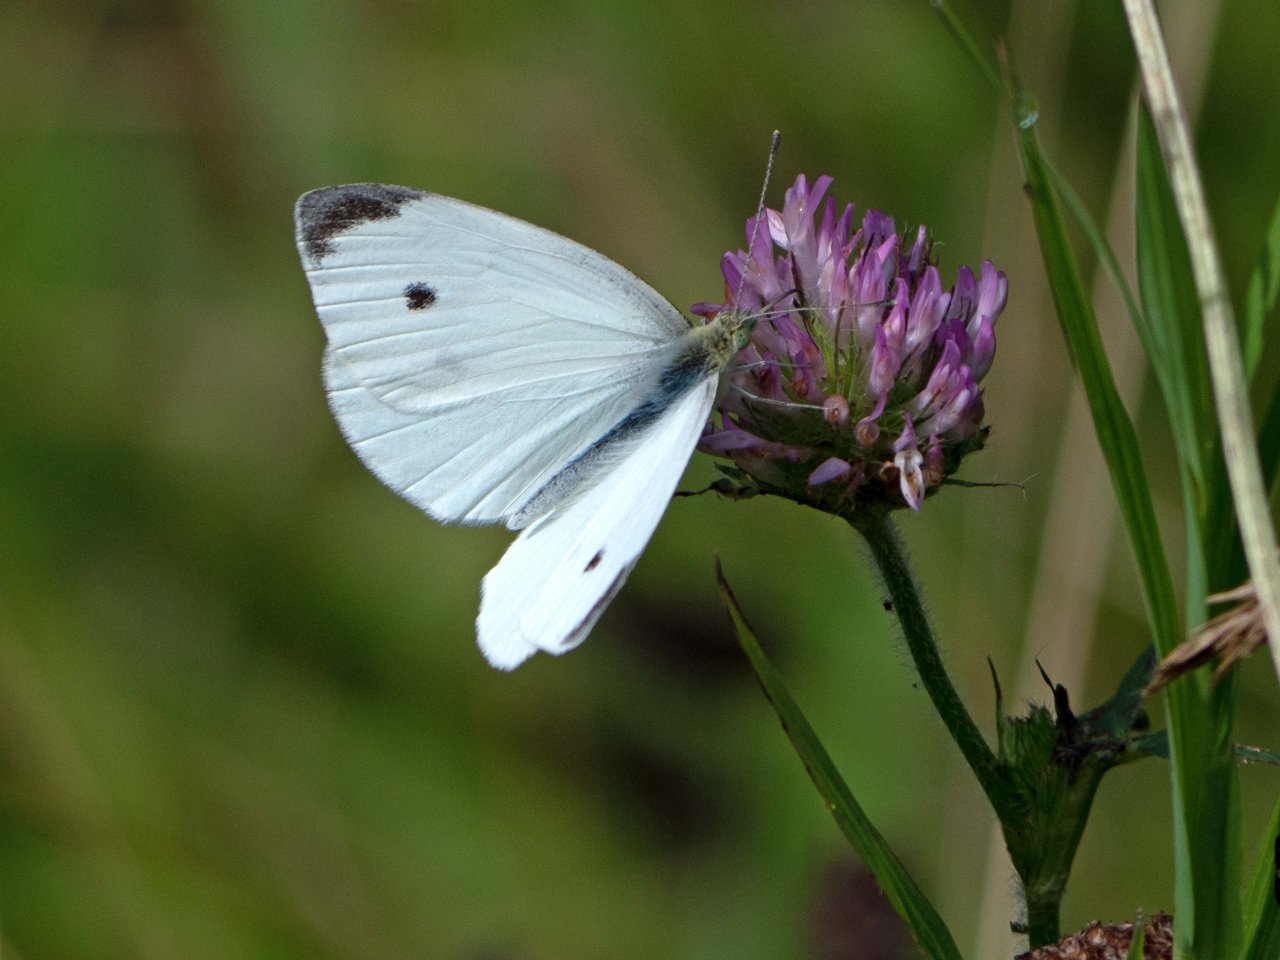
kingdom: Animalia
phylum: Arthropoda
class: Insecta
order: Lepidoptera
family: Pieridae
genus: Pieris
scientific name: Pieris rapae
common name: Cabbage White
